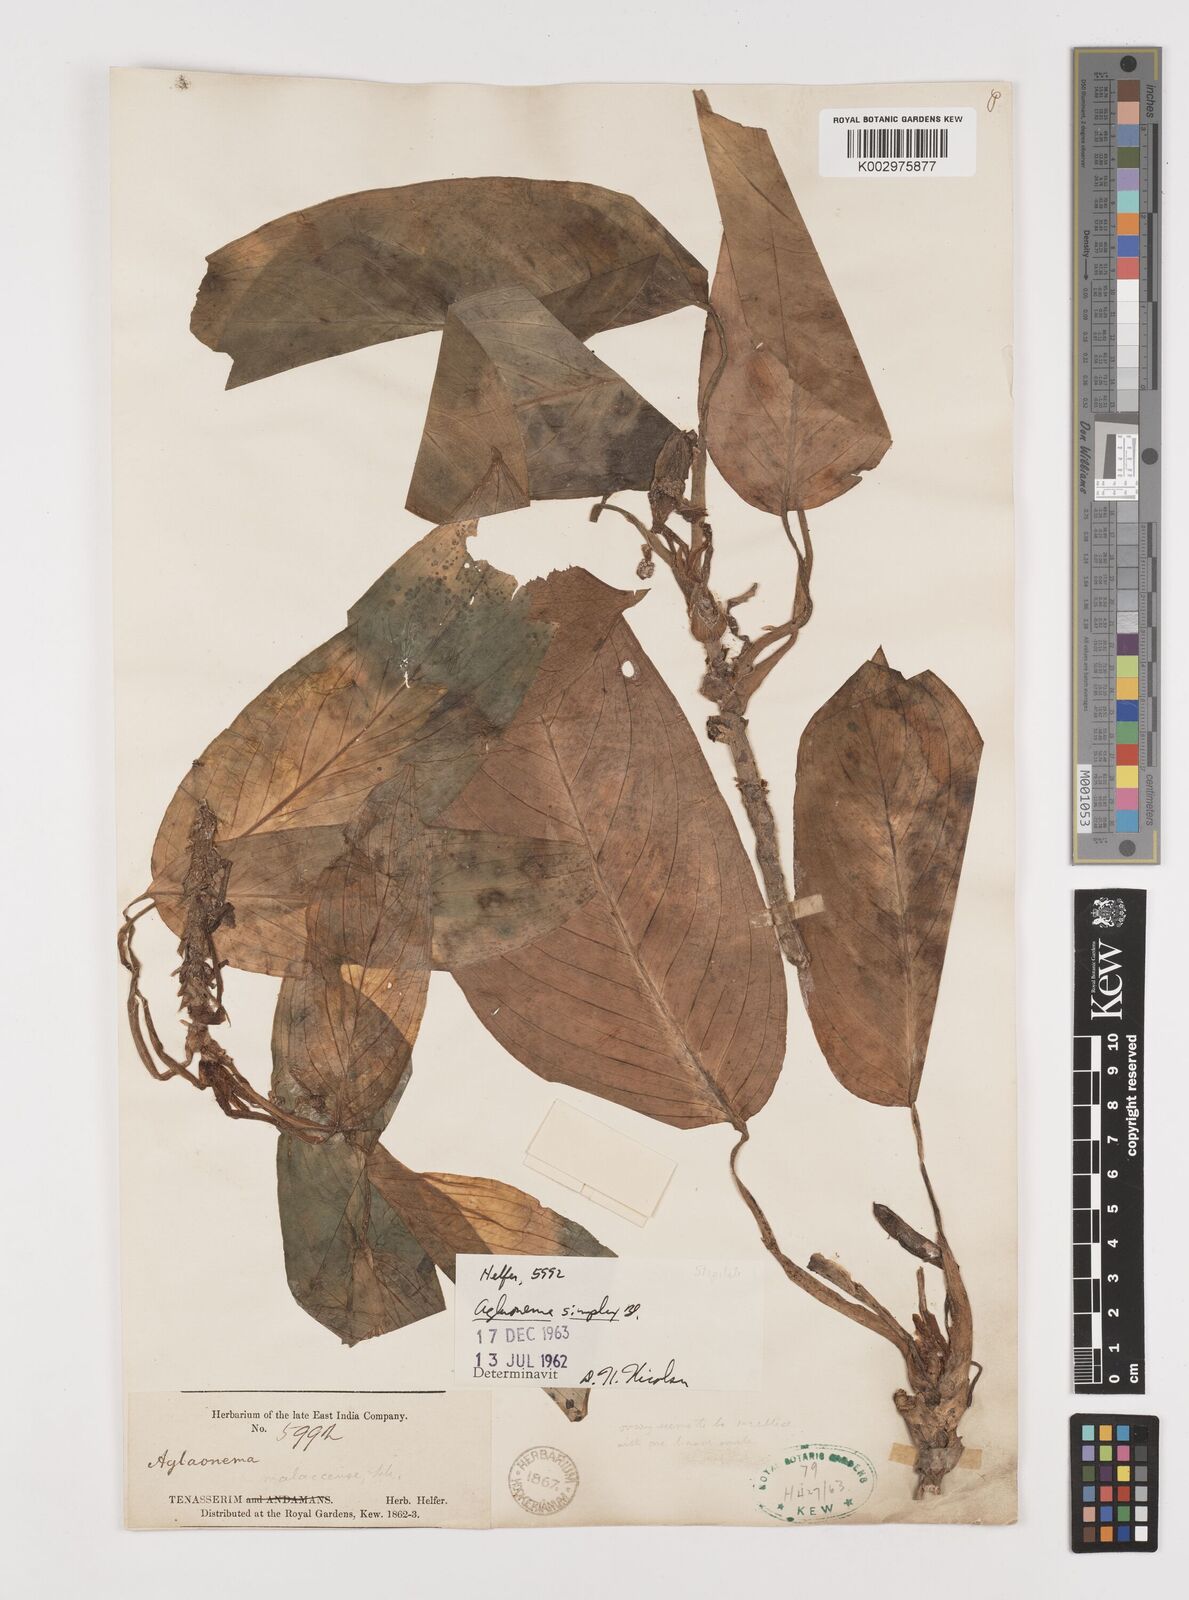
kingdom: Plantae
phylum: Tracheophyta
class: Liliopsida
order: Alismatales
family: Araceae
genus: Aglaonema
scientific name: Aglaonema simplex
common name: Malayan-sword
